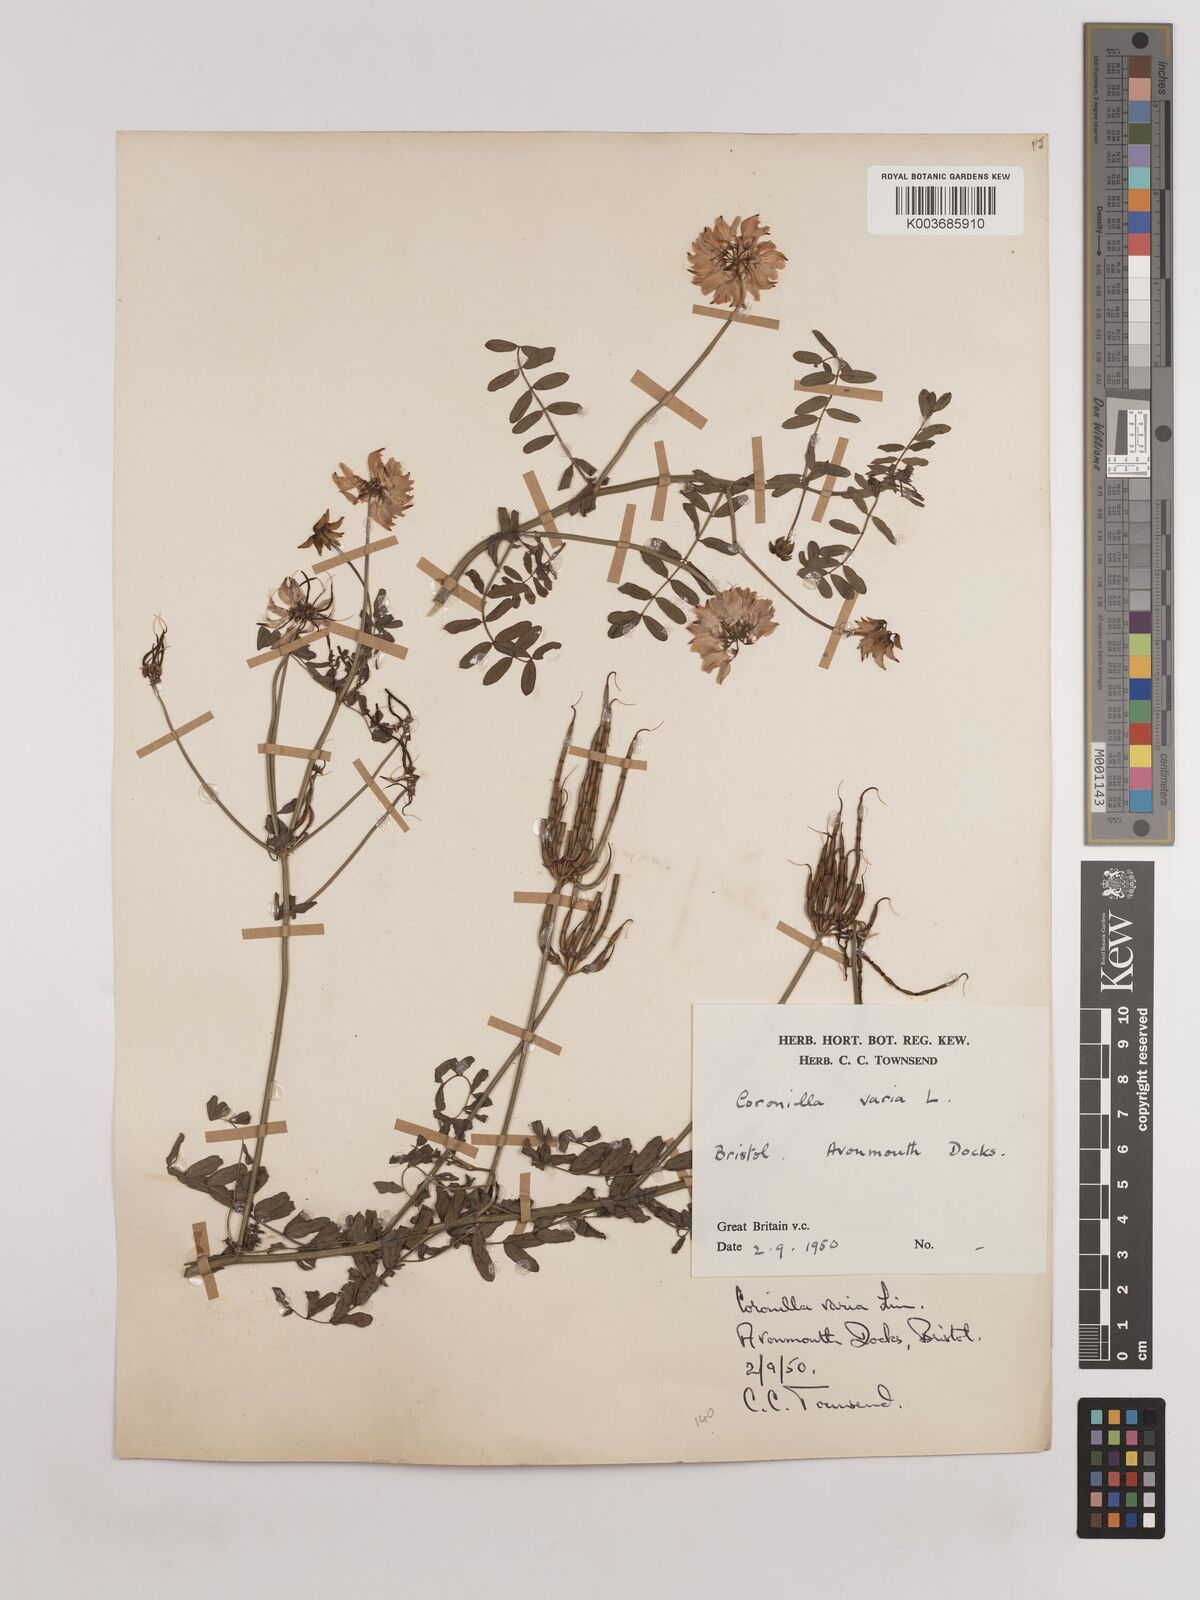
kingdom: Plantae
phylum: Tracheophyta
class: Magnoliopsida
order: Fabales
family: Fabaceae
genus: Coronilla
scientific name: Coronilla varia
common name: Crownvetch
